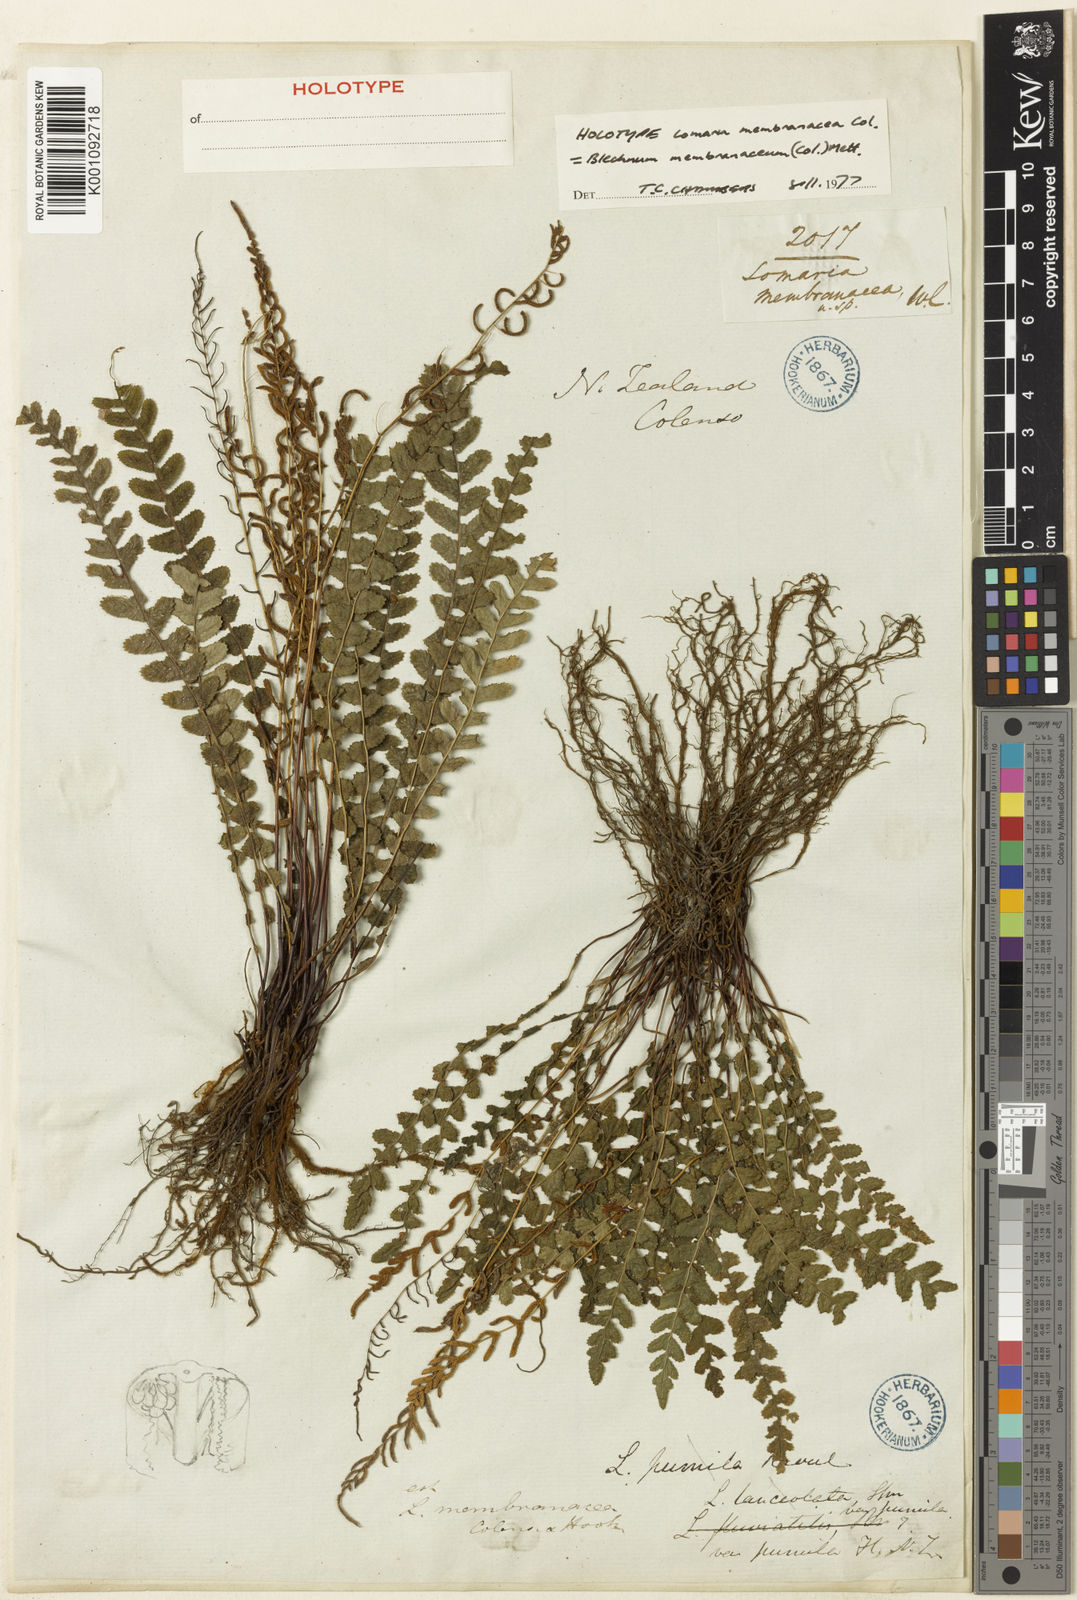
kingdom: Plantae
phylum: Tracheophyta
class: Polypodiopsida
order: Polypodiales
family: Blechnaceae
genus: Austroblechnum
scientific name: Austroblechnum membranaceum
